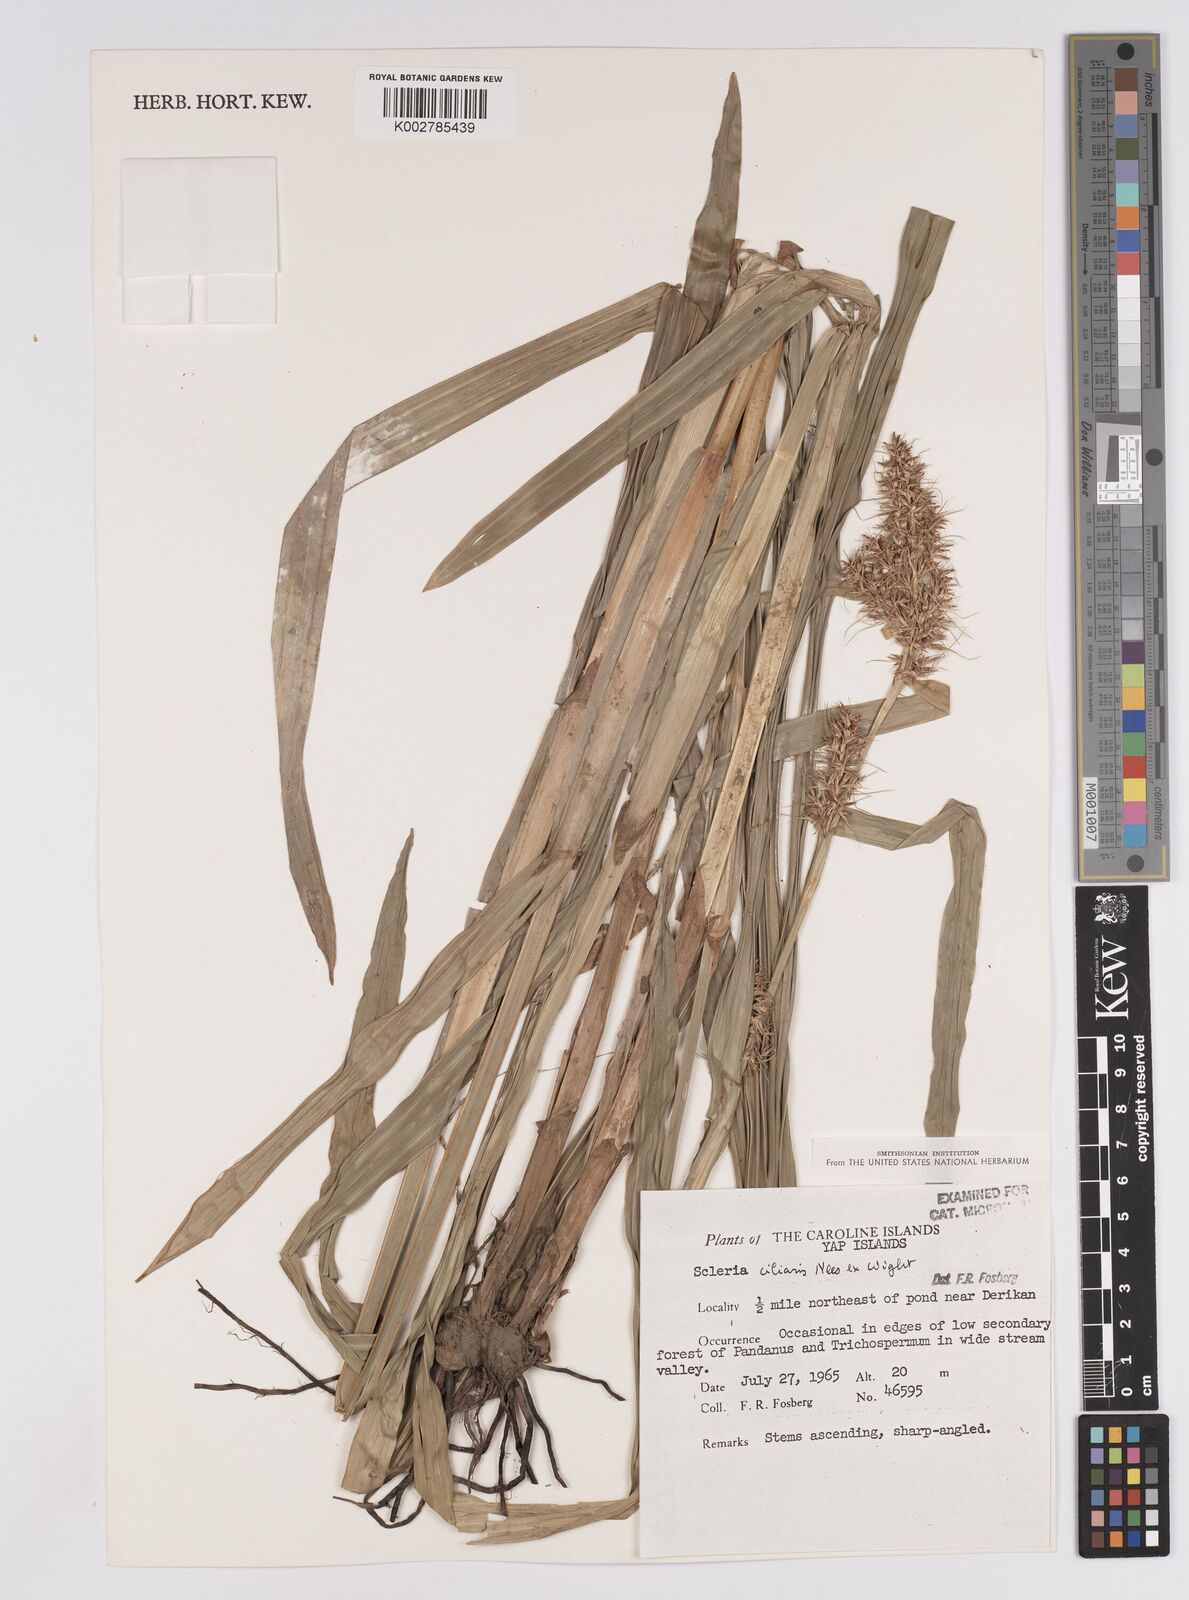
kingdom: Plantae
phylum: Tracheophyta
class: Liliopsida
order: Poales
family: Cyperaceae
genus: Scleria
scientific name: Scleria ciliaris
